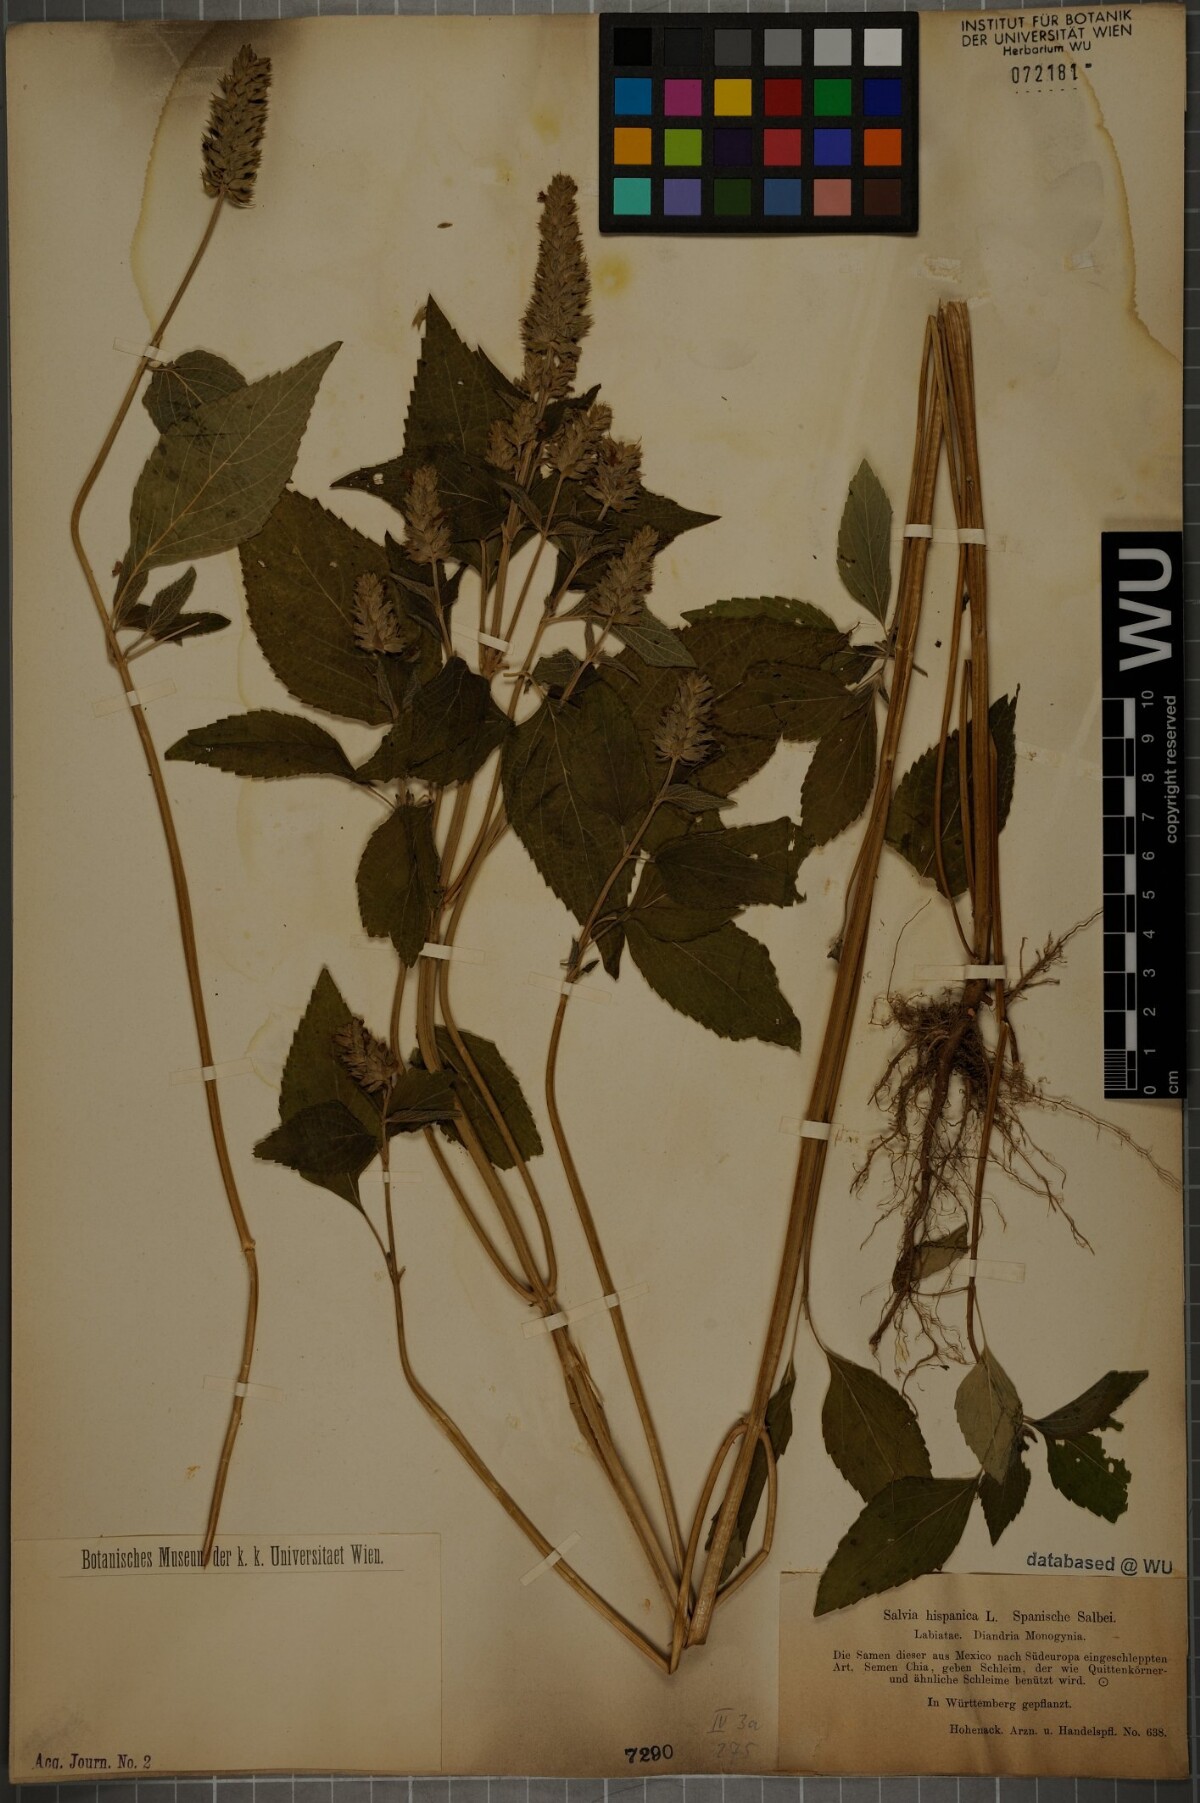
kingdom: Plantae
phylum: Tracheophyta
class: Magnoliopsida
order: Lamiales
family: Lamiaceae
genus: Salvia
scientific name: Salvia hispanica
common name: Chia
